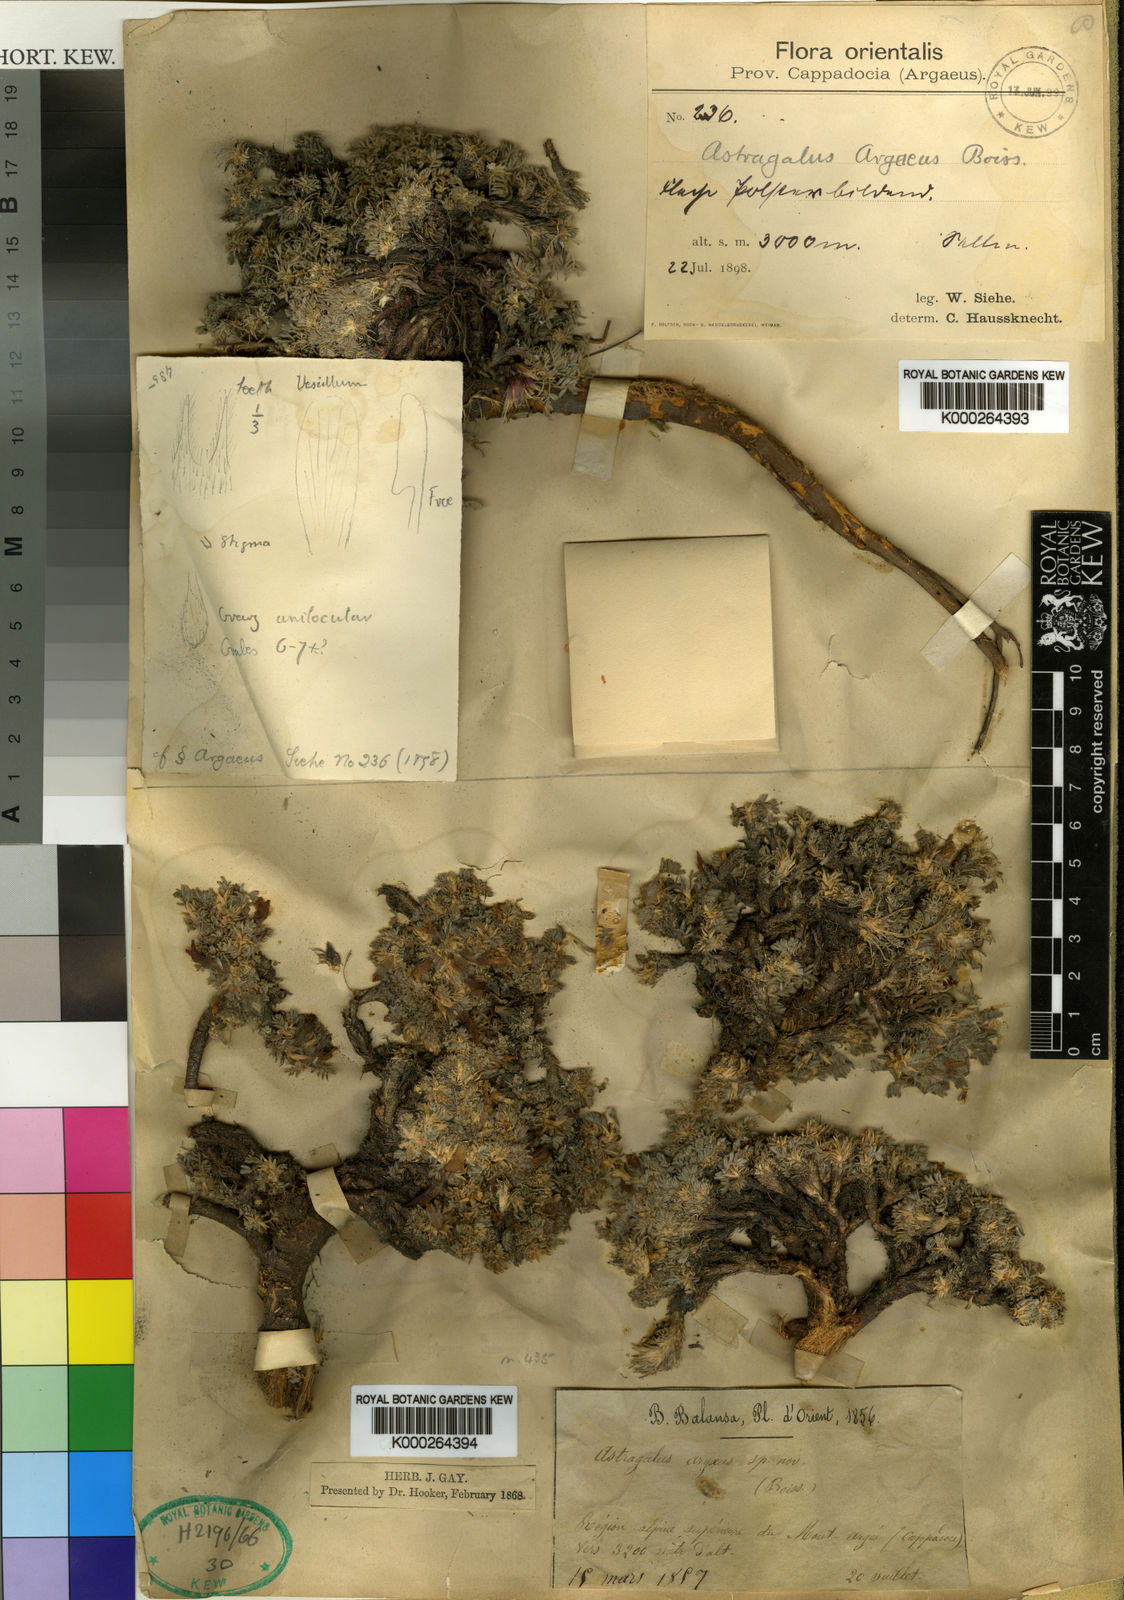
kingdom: Plantae
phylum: Tracheophyta
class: Magnoliopsida
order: Fabales
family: Fabaceae
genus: Astragalus
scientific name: Astragalus argaeus
